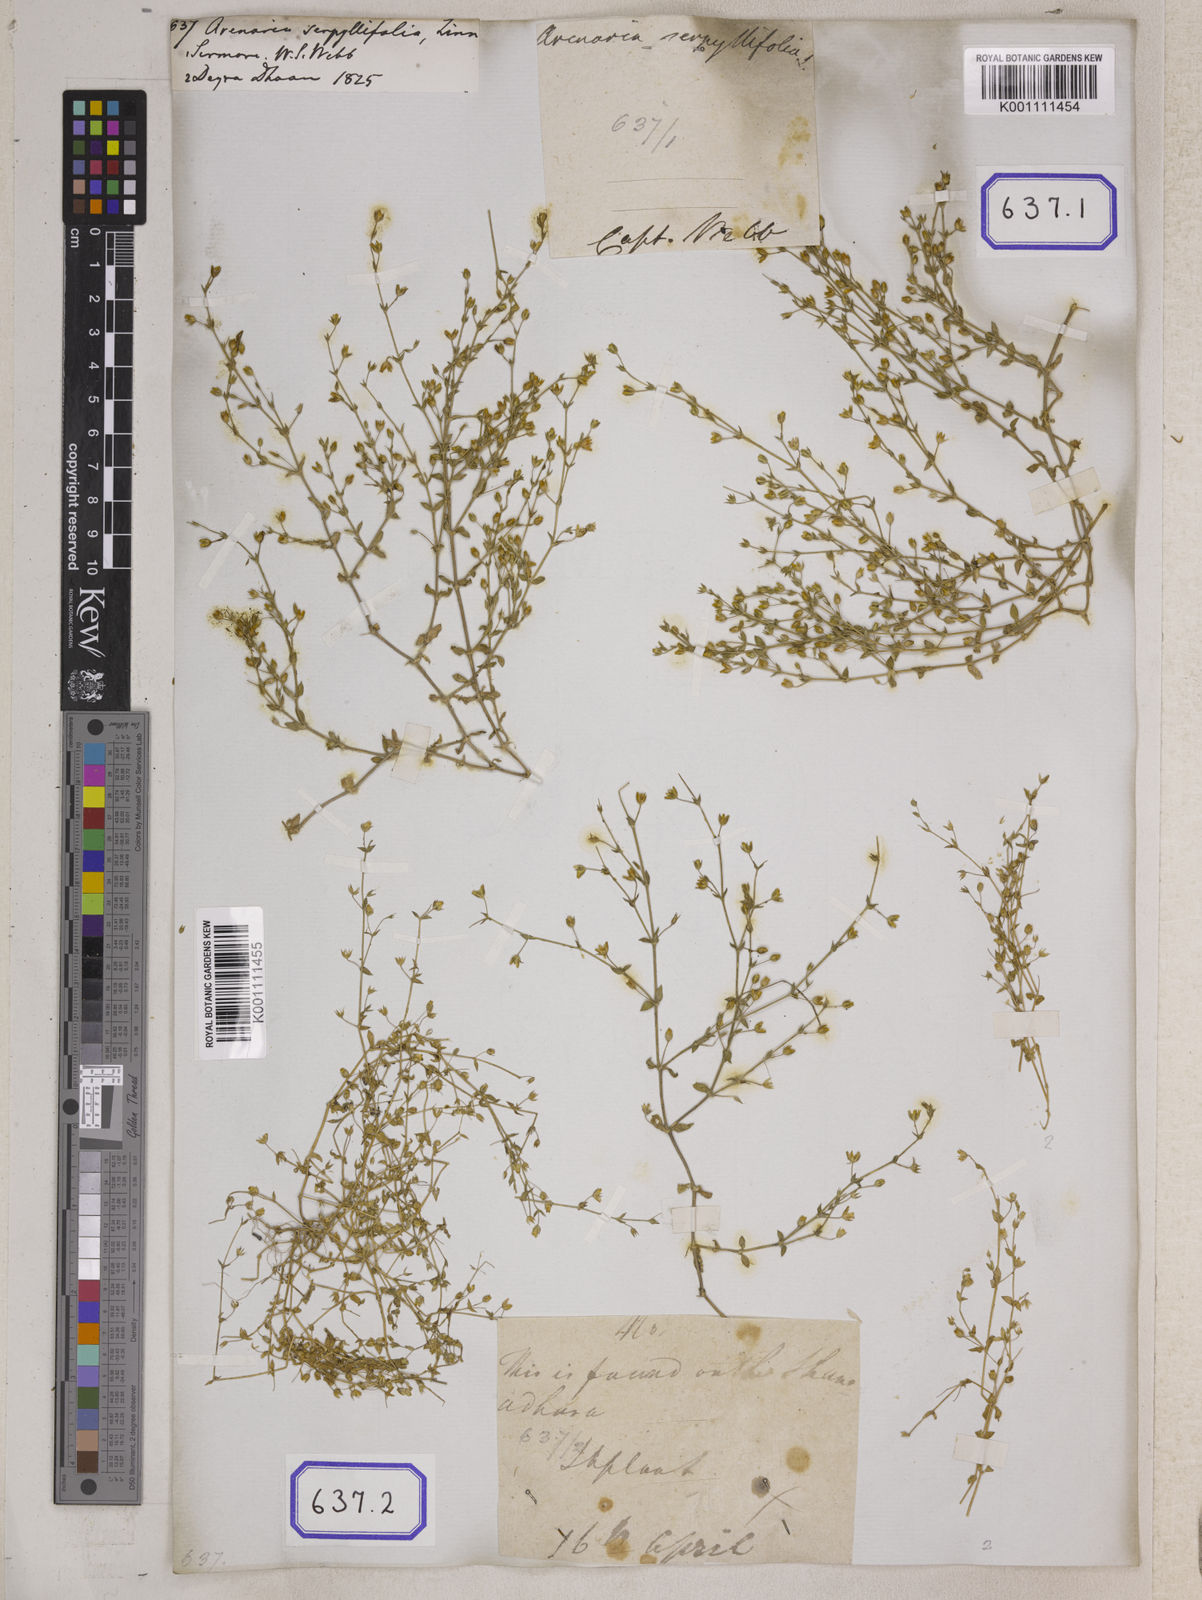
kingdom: Plantae
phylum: Tracheophyta
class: Magnoliopsida
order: Caryophyllales
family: Caryophyllaceae
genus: Arenaria
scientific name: Arenaria serpyllifolia
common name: Thyme-leaved sandwort
